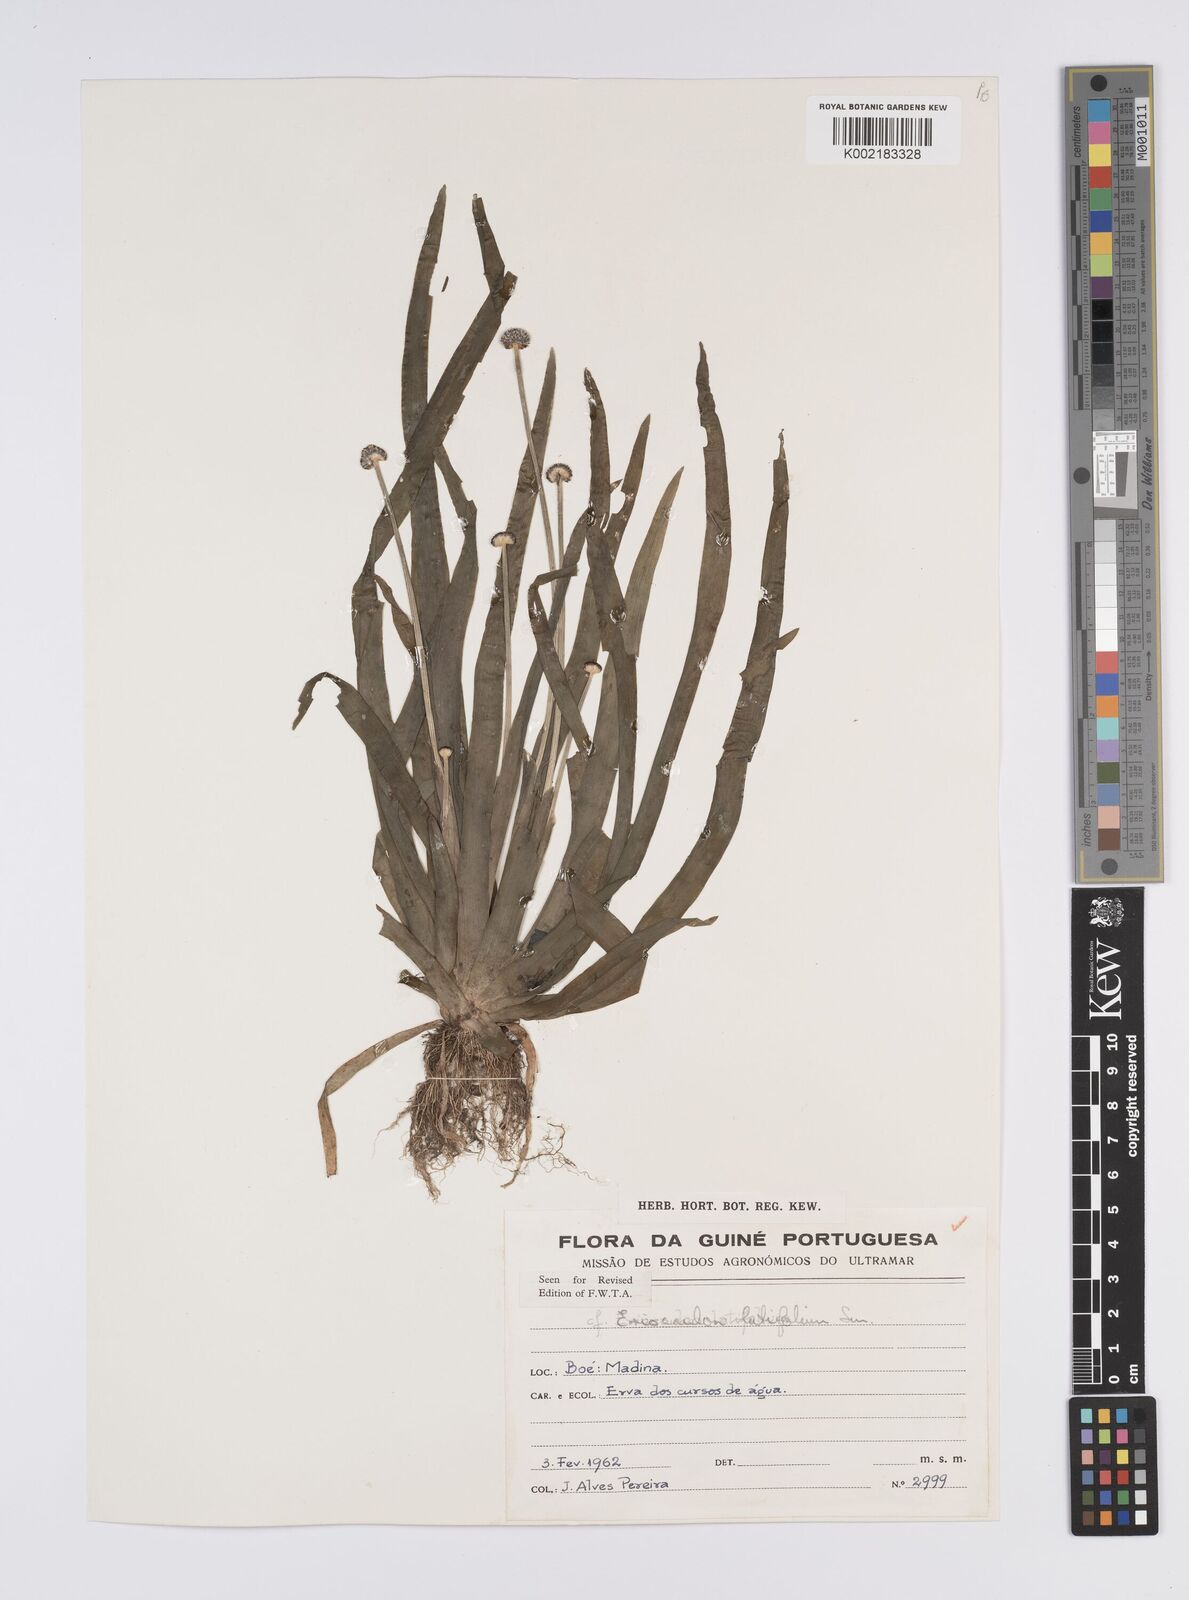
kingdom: Plantae
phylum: Tracheophyta
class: Liliopsida
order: Poales
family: Eriocaulaceae
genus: Eriocaulon
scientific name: Eriocaulon latifolium
